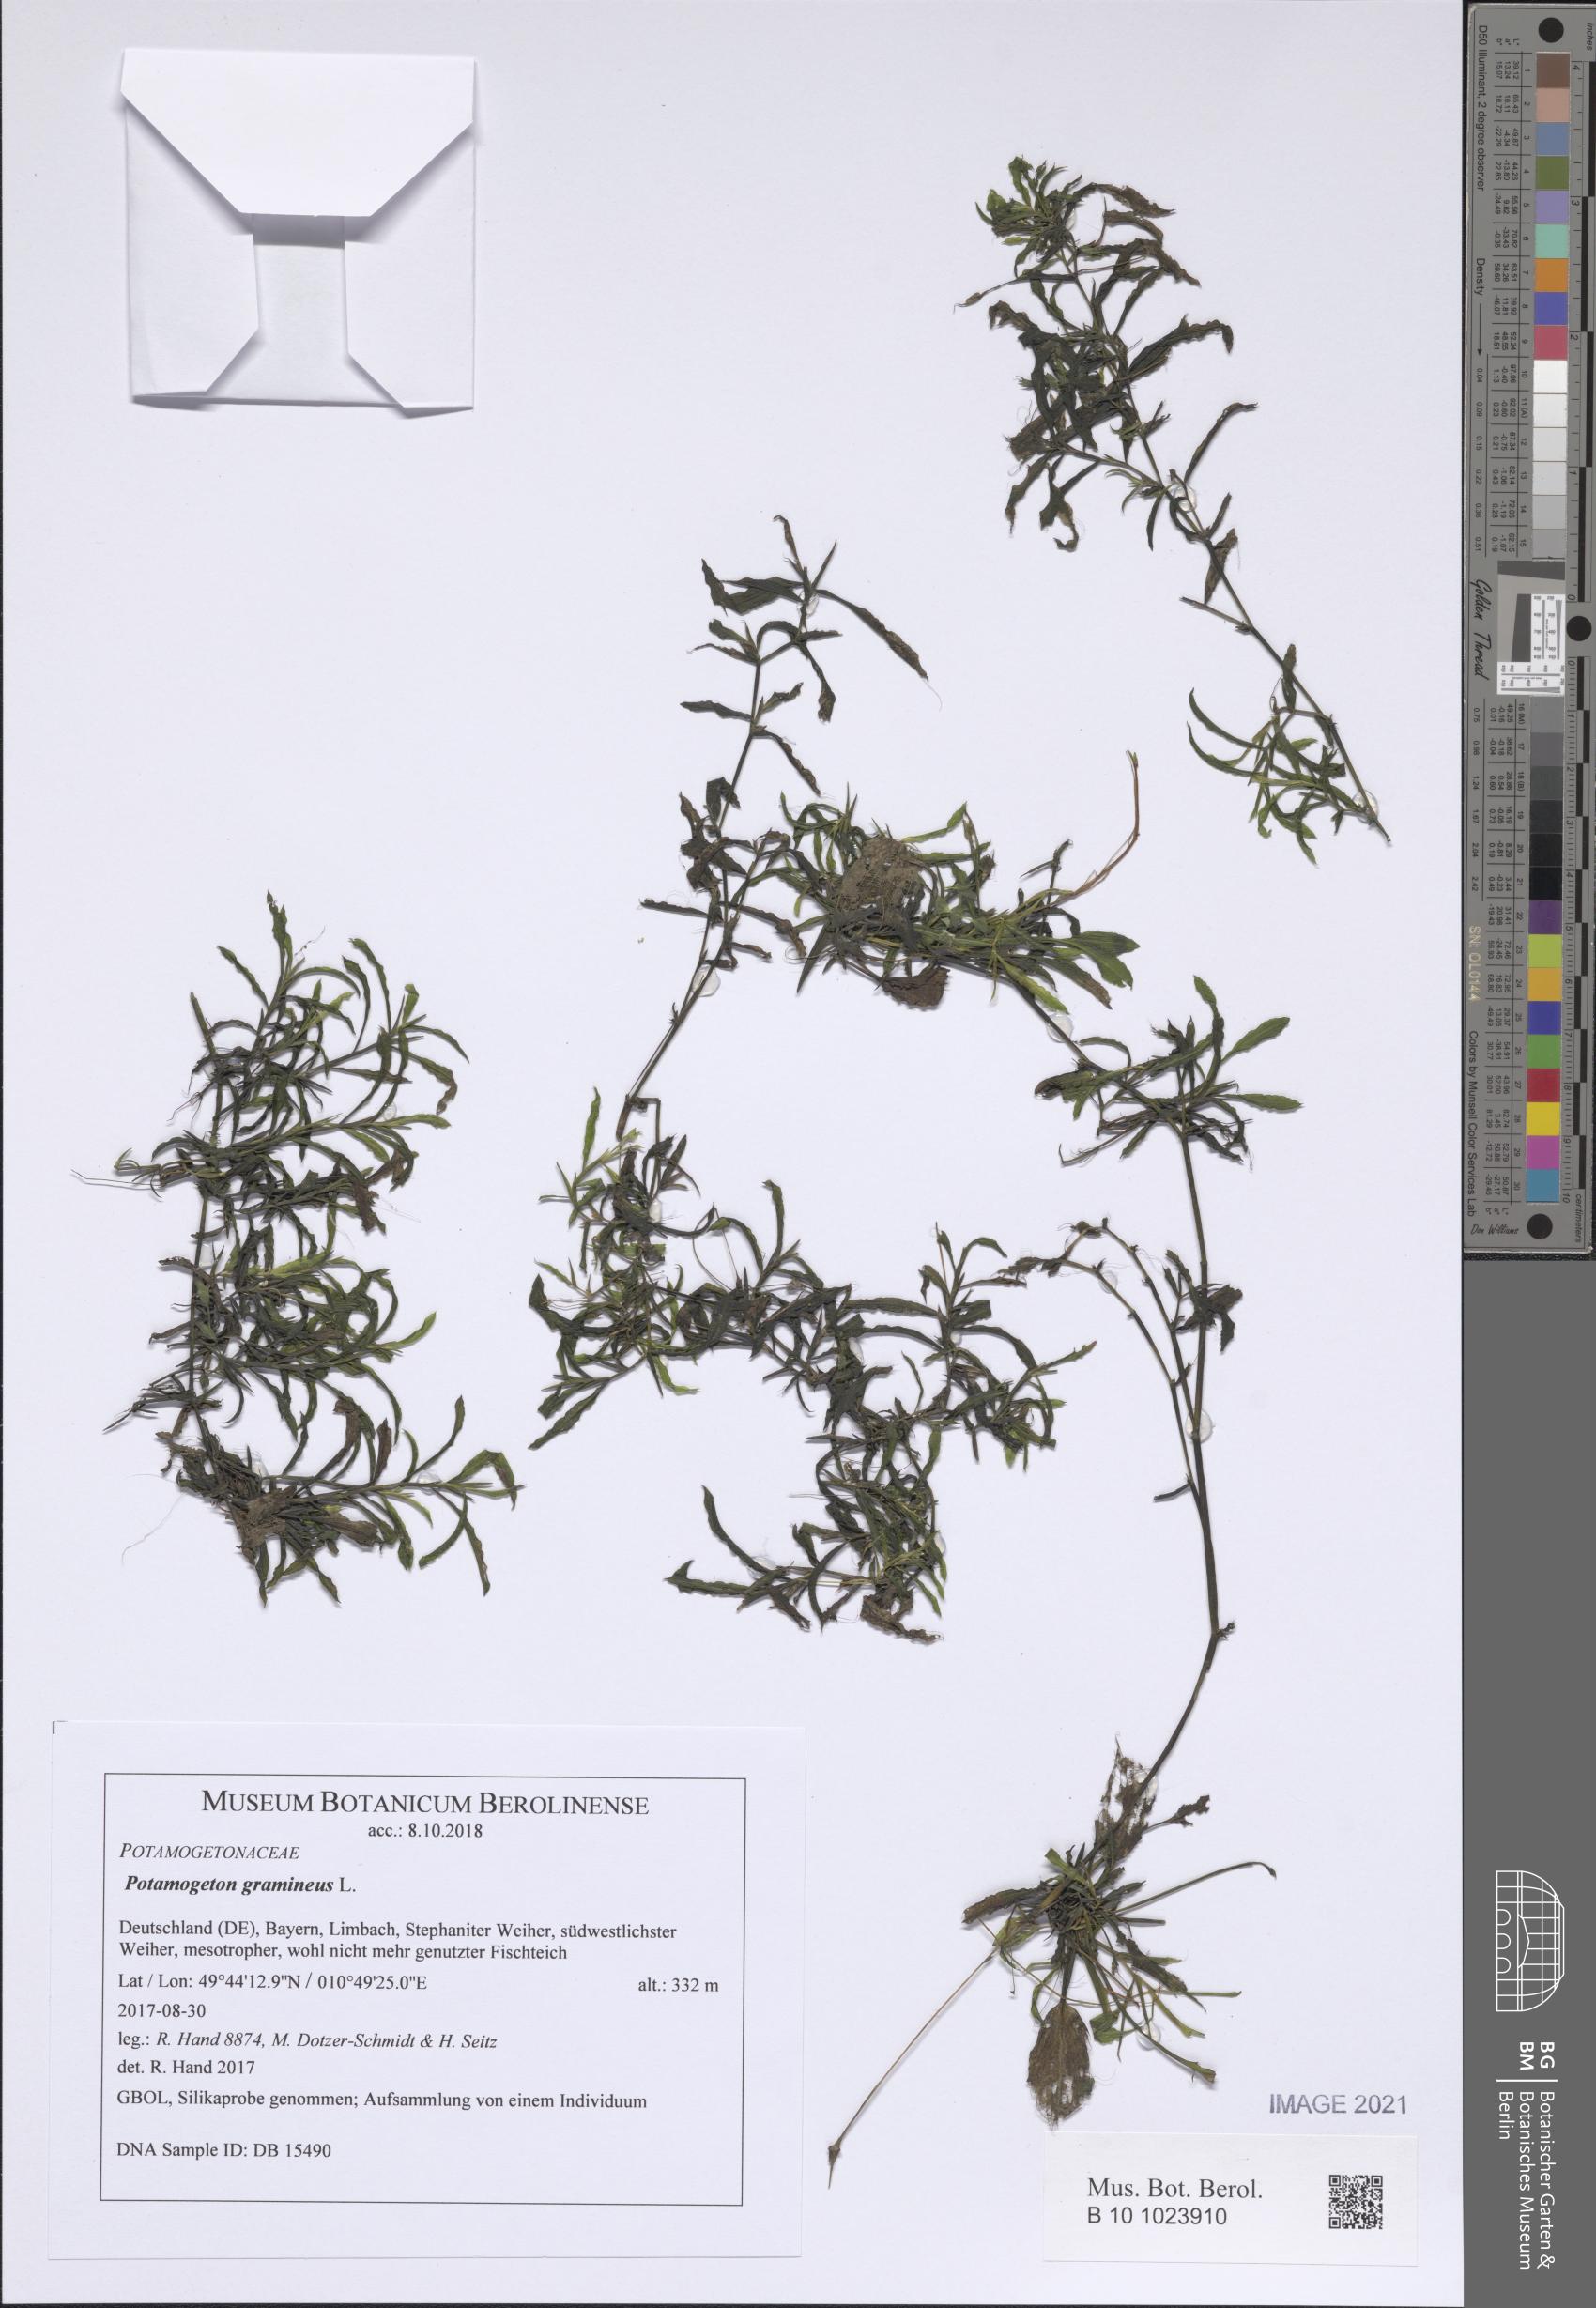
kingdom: Plantae
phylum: Tracheophyta
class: Liliopsida
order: Alismatales
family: Potamogetonaceae
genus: Potamogeton
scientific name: Potamogeton gramineus
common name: Various-leaved pondweed
